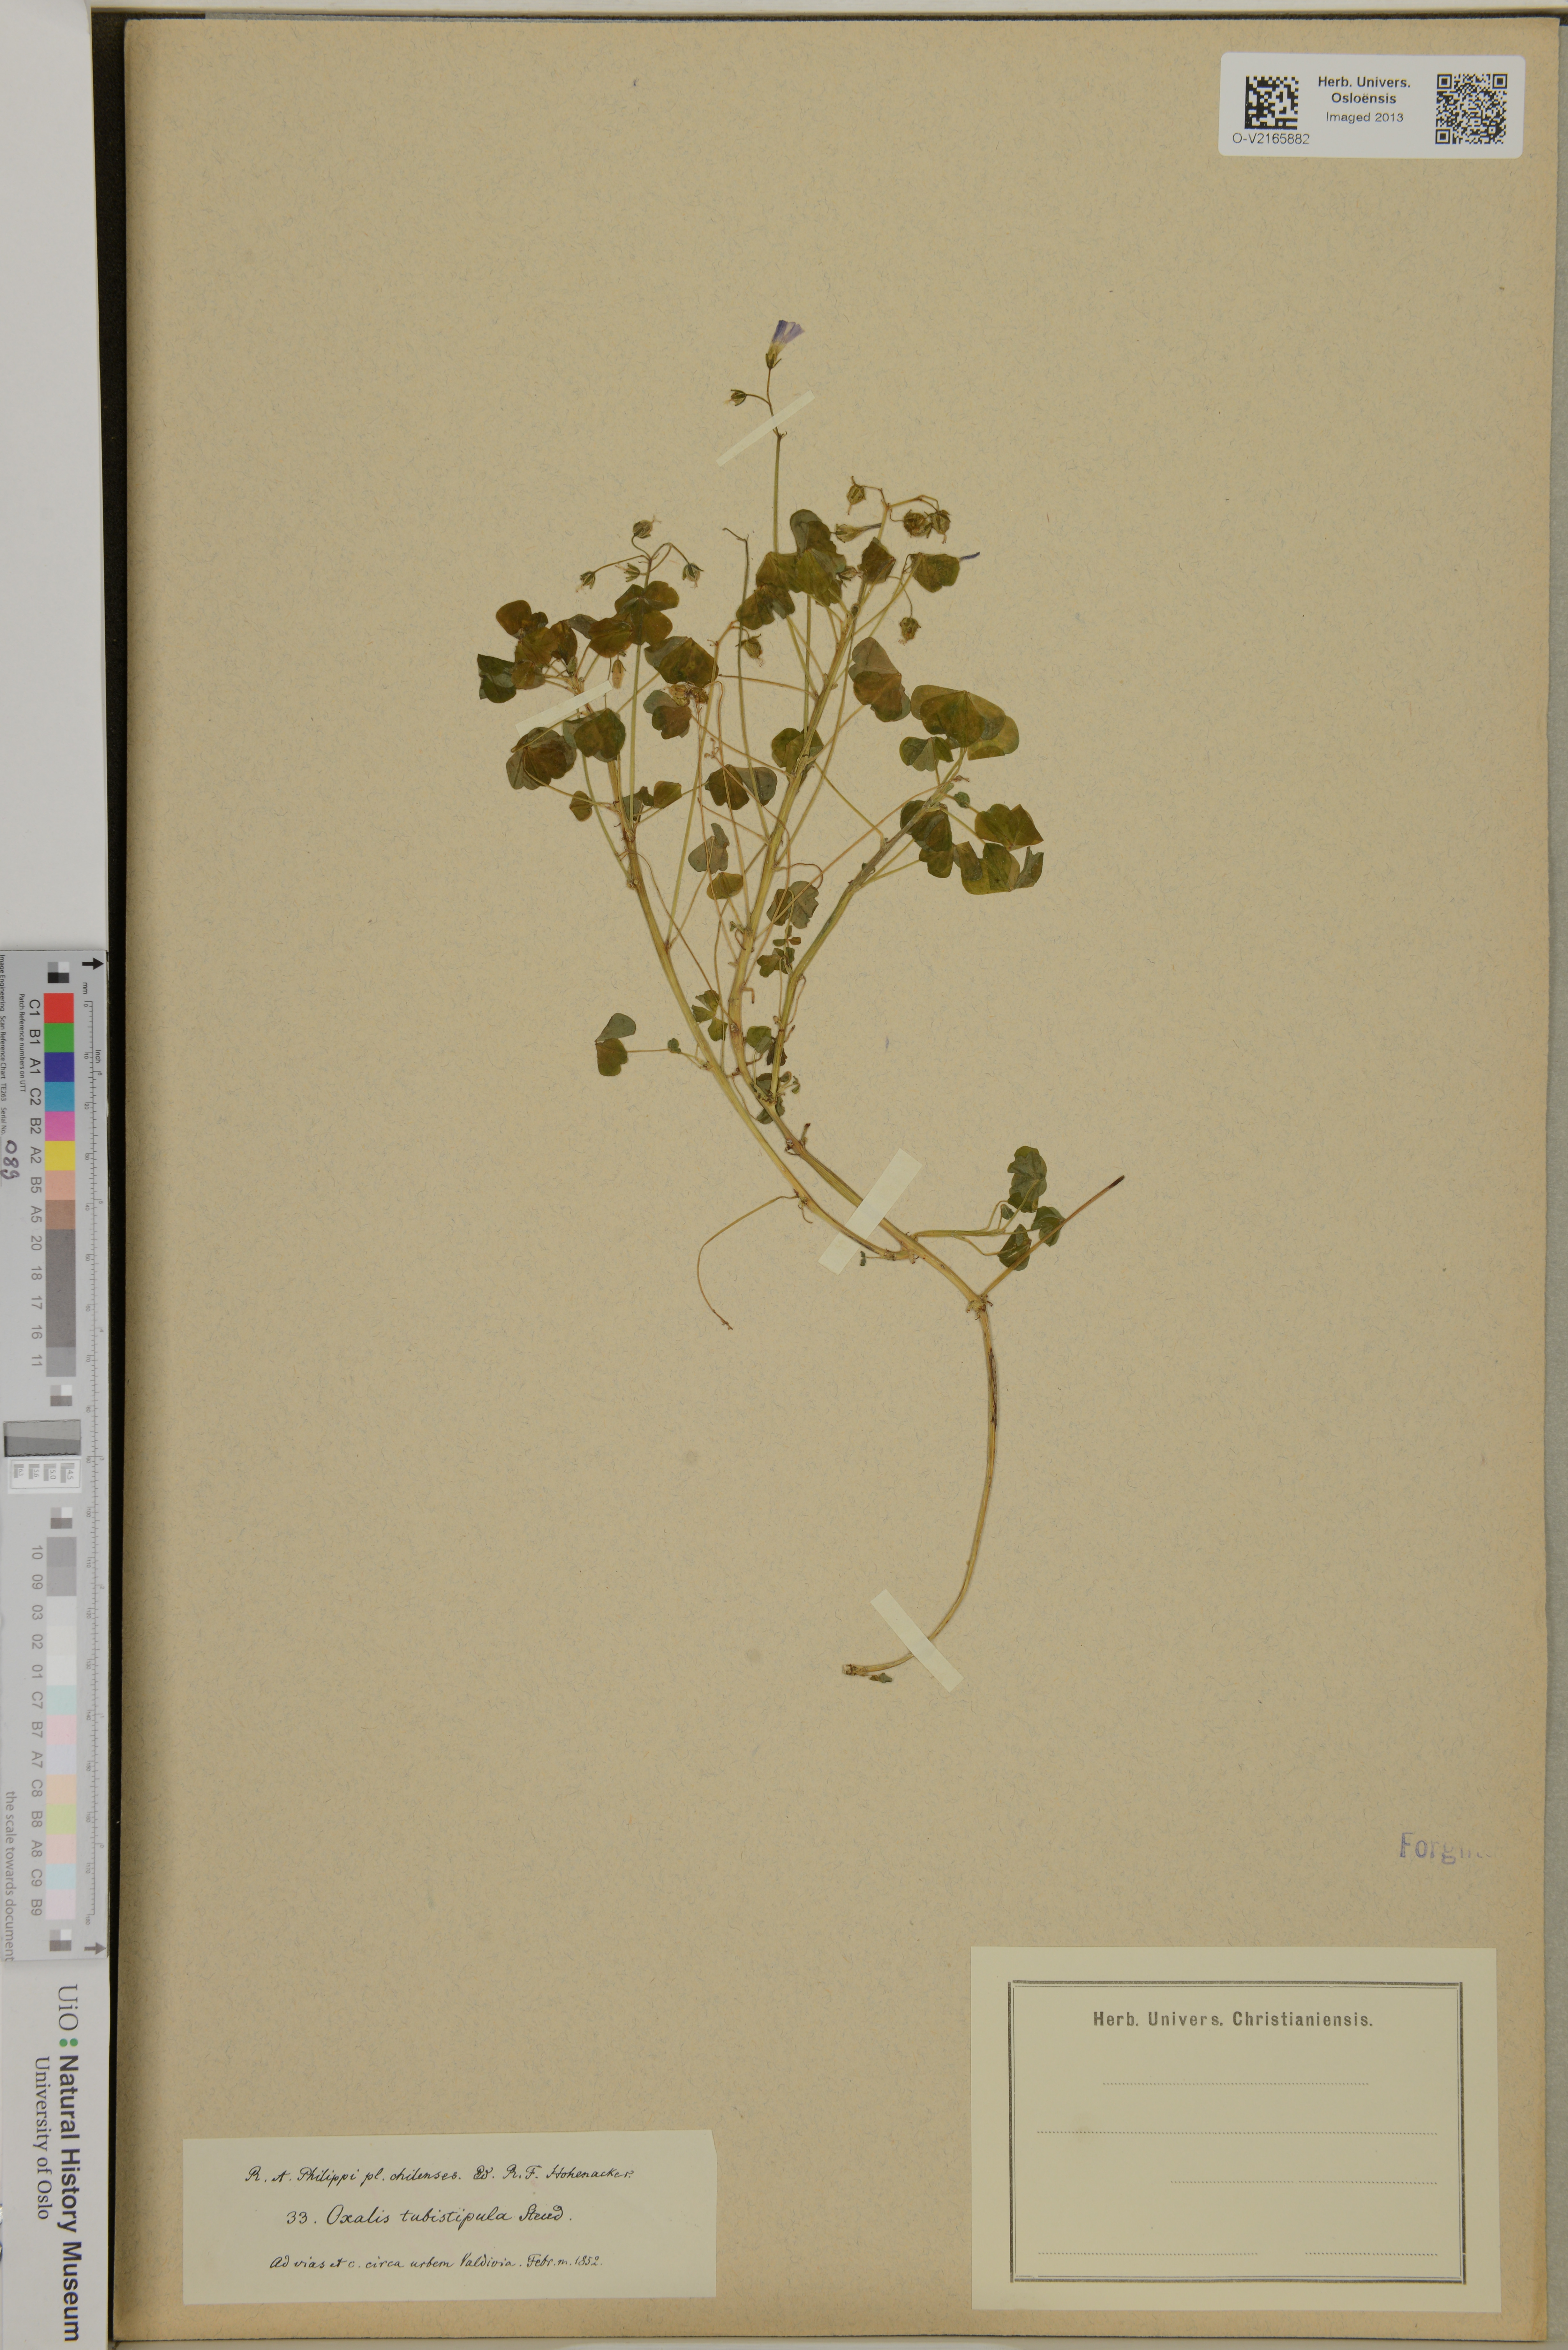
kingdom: Plantae
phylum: Tracheophyta
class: Magnoliopsida
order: Oxalidales
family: Oxalidaceae
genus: Oxalis
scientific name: Oxalis articulata
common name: Pink-sorrel
